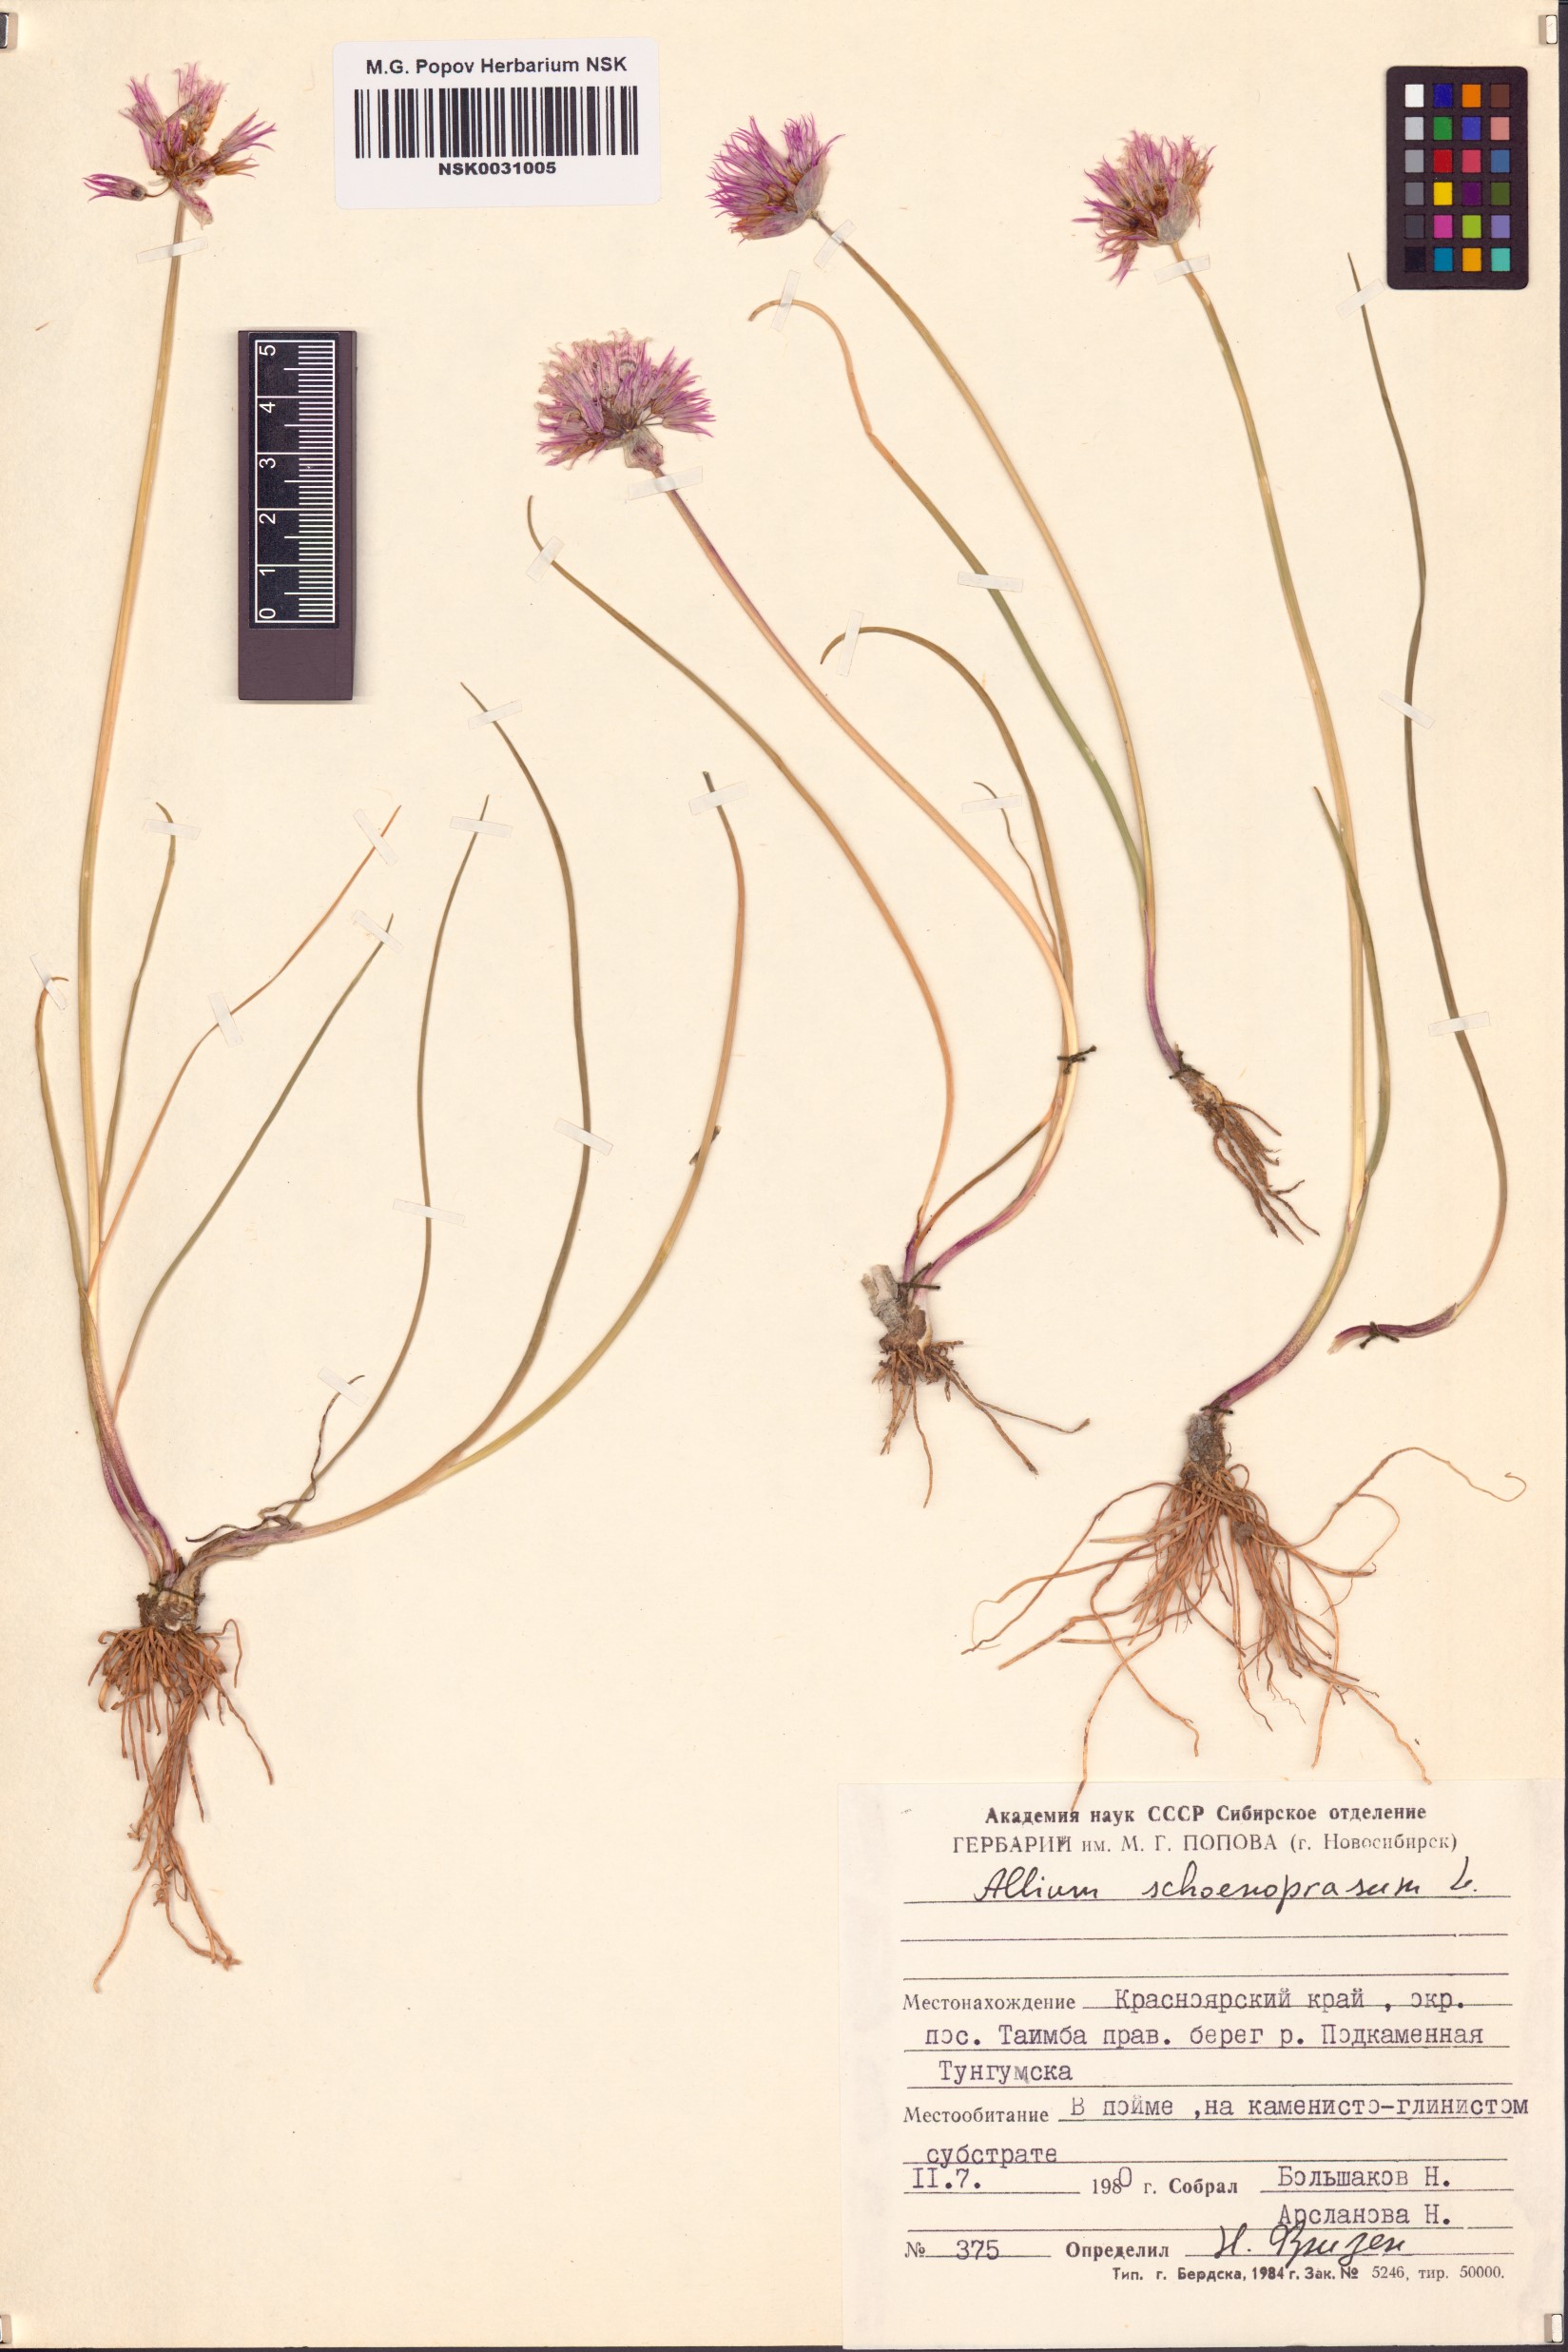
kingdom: Plantae
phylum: Tracheophyta
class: Liliopsida
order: Asparagales
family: Amaryllidaceae
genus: Allium
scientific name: Allium schoenoprasum
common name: Chives
